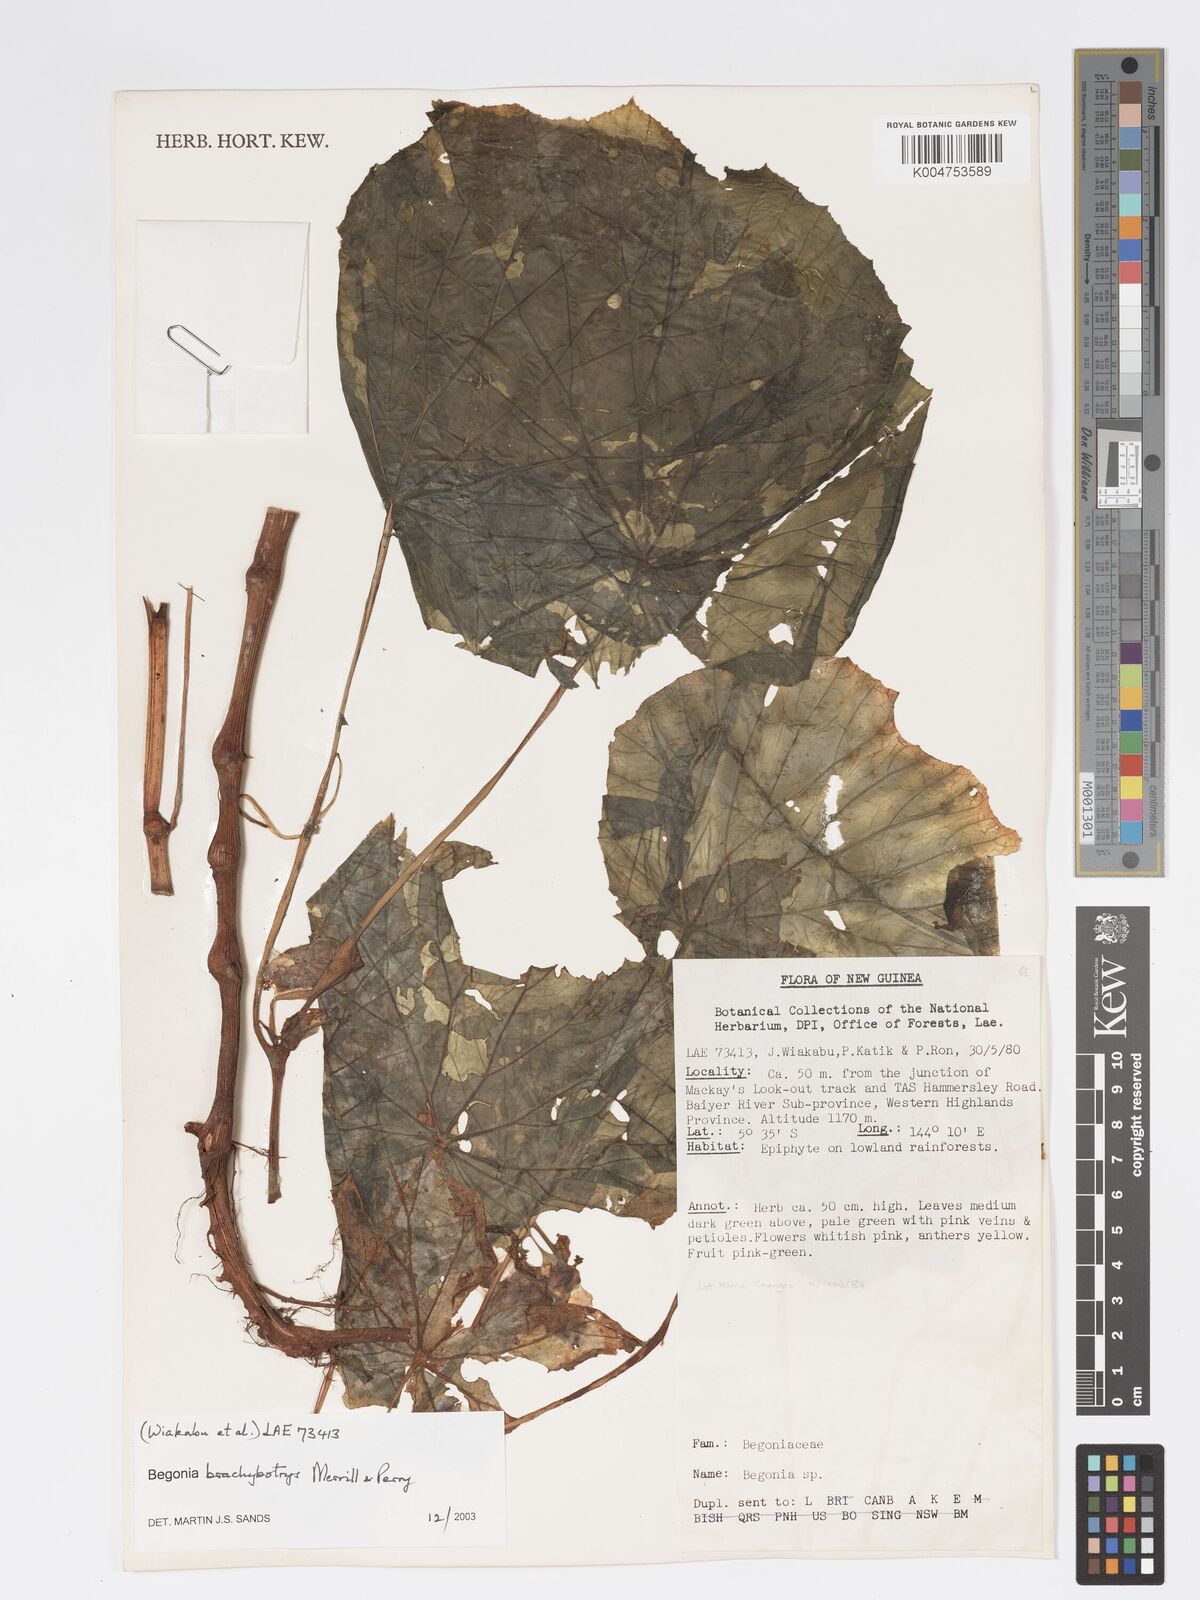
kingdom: Plantae
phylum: Tracheophyta
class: Magnoliopsida
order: Cucurbitales
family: Begoniaceae
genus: Begonia
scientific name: Begonia brachybotrys
